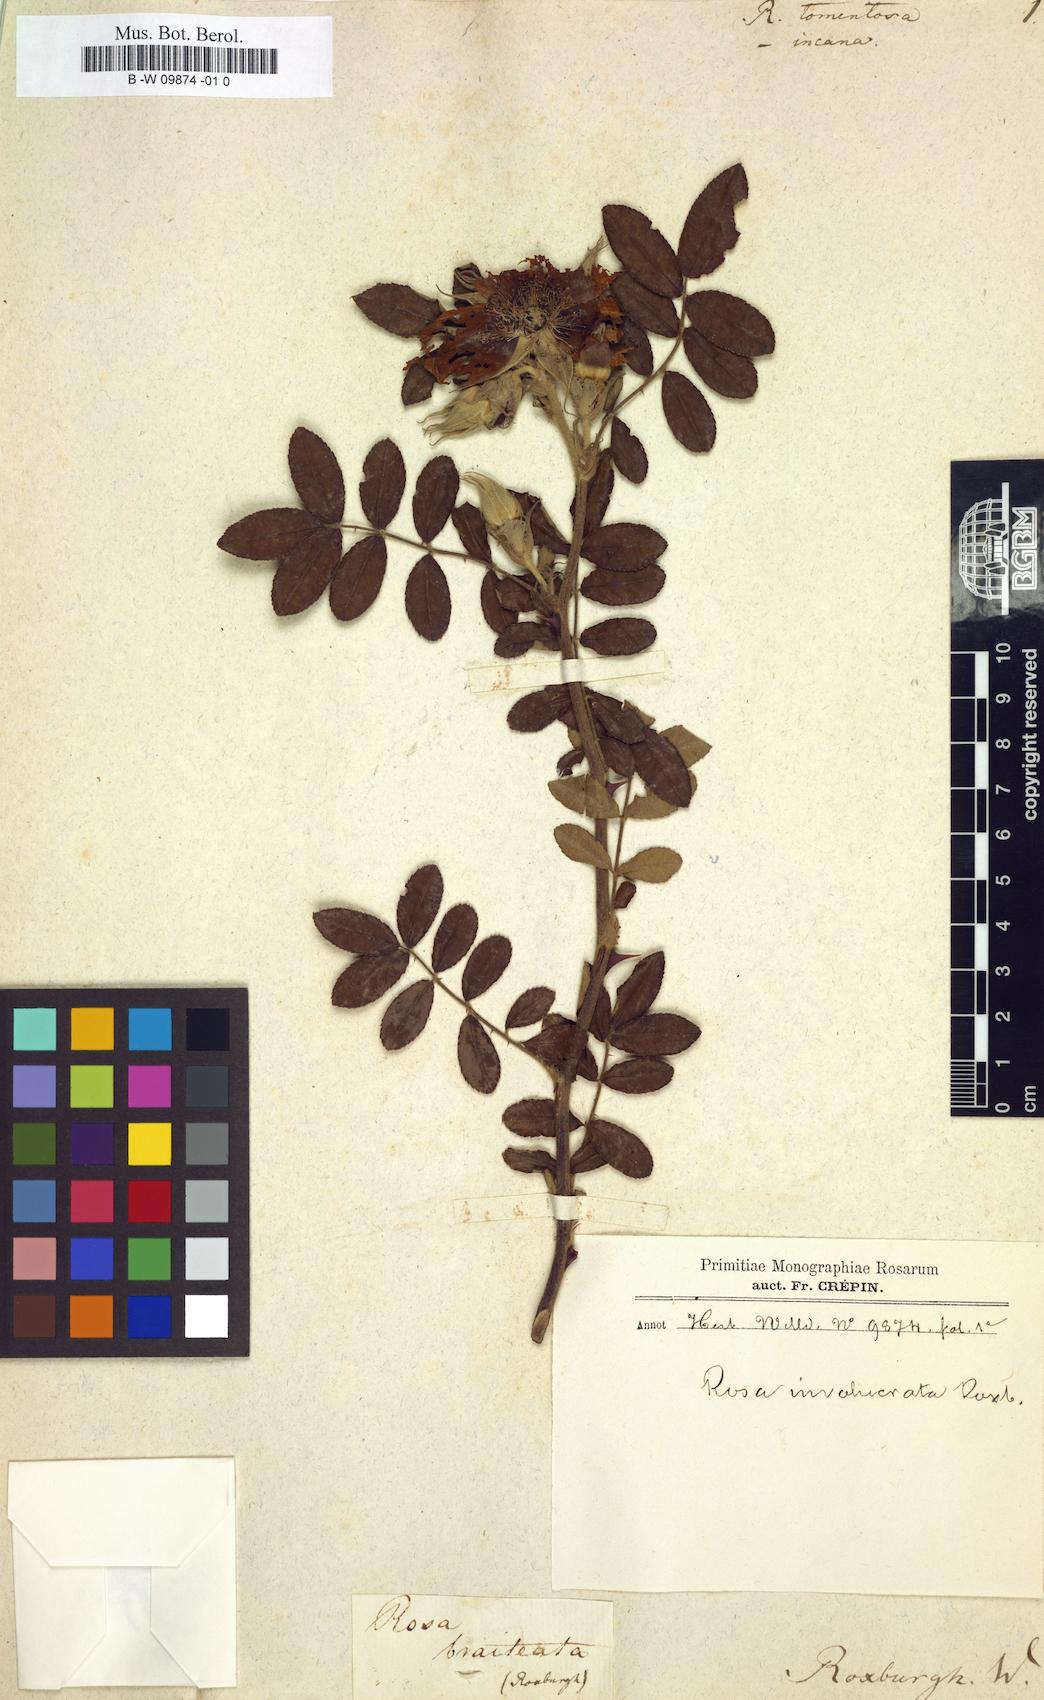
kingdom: Plantae
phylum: Tracheophyta
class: Magnoliopsida
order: Rosales
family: Rosaceae
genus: Rosa
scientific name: Rosa tomentosa
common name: Downy rose
